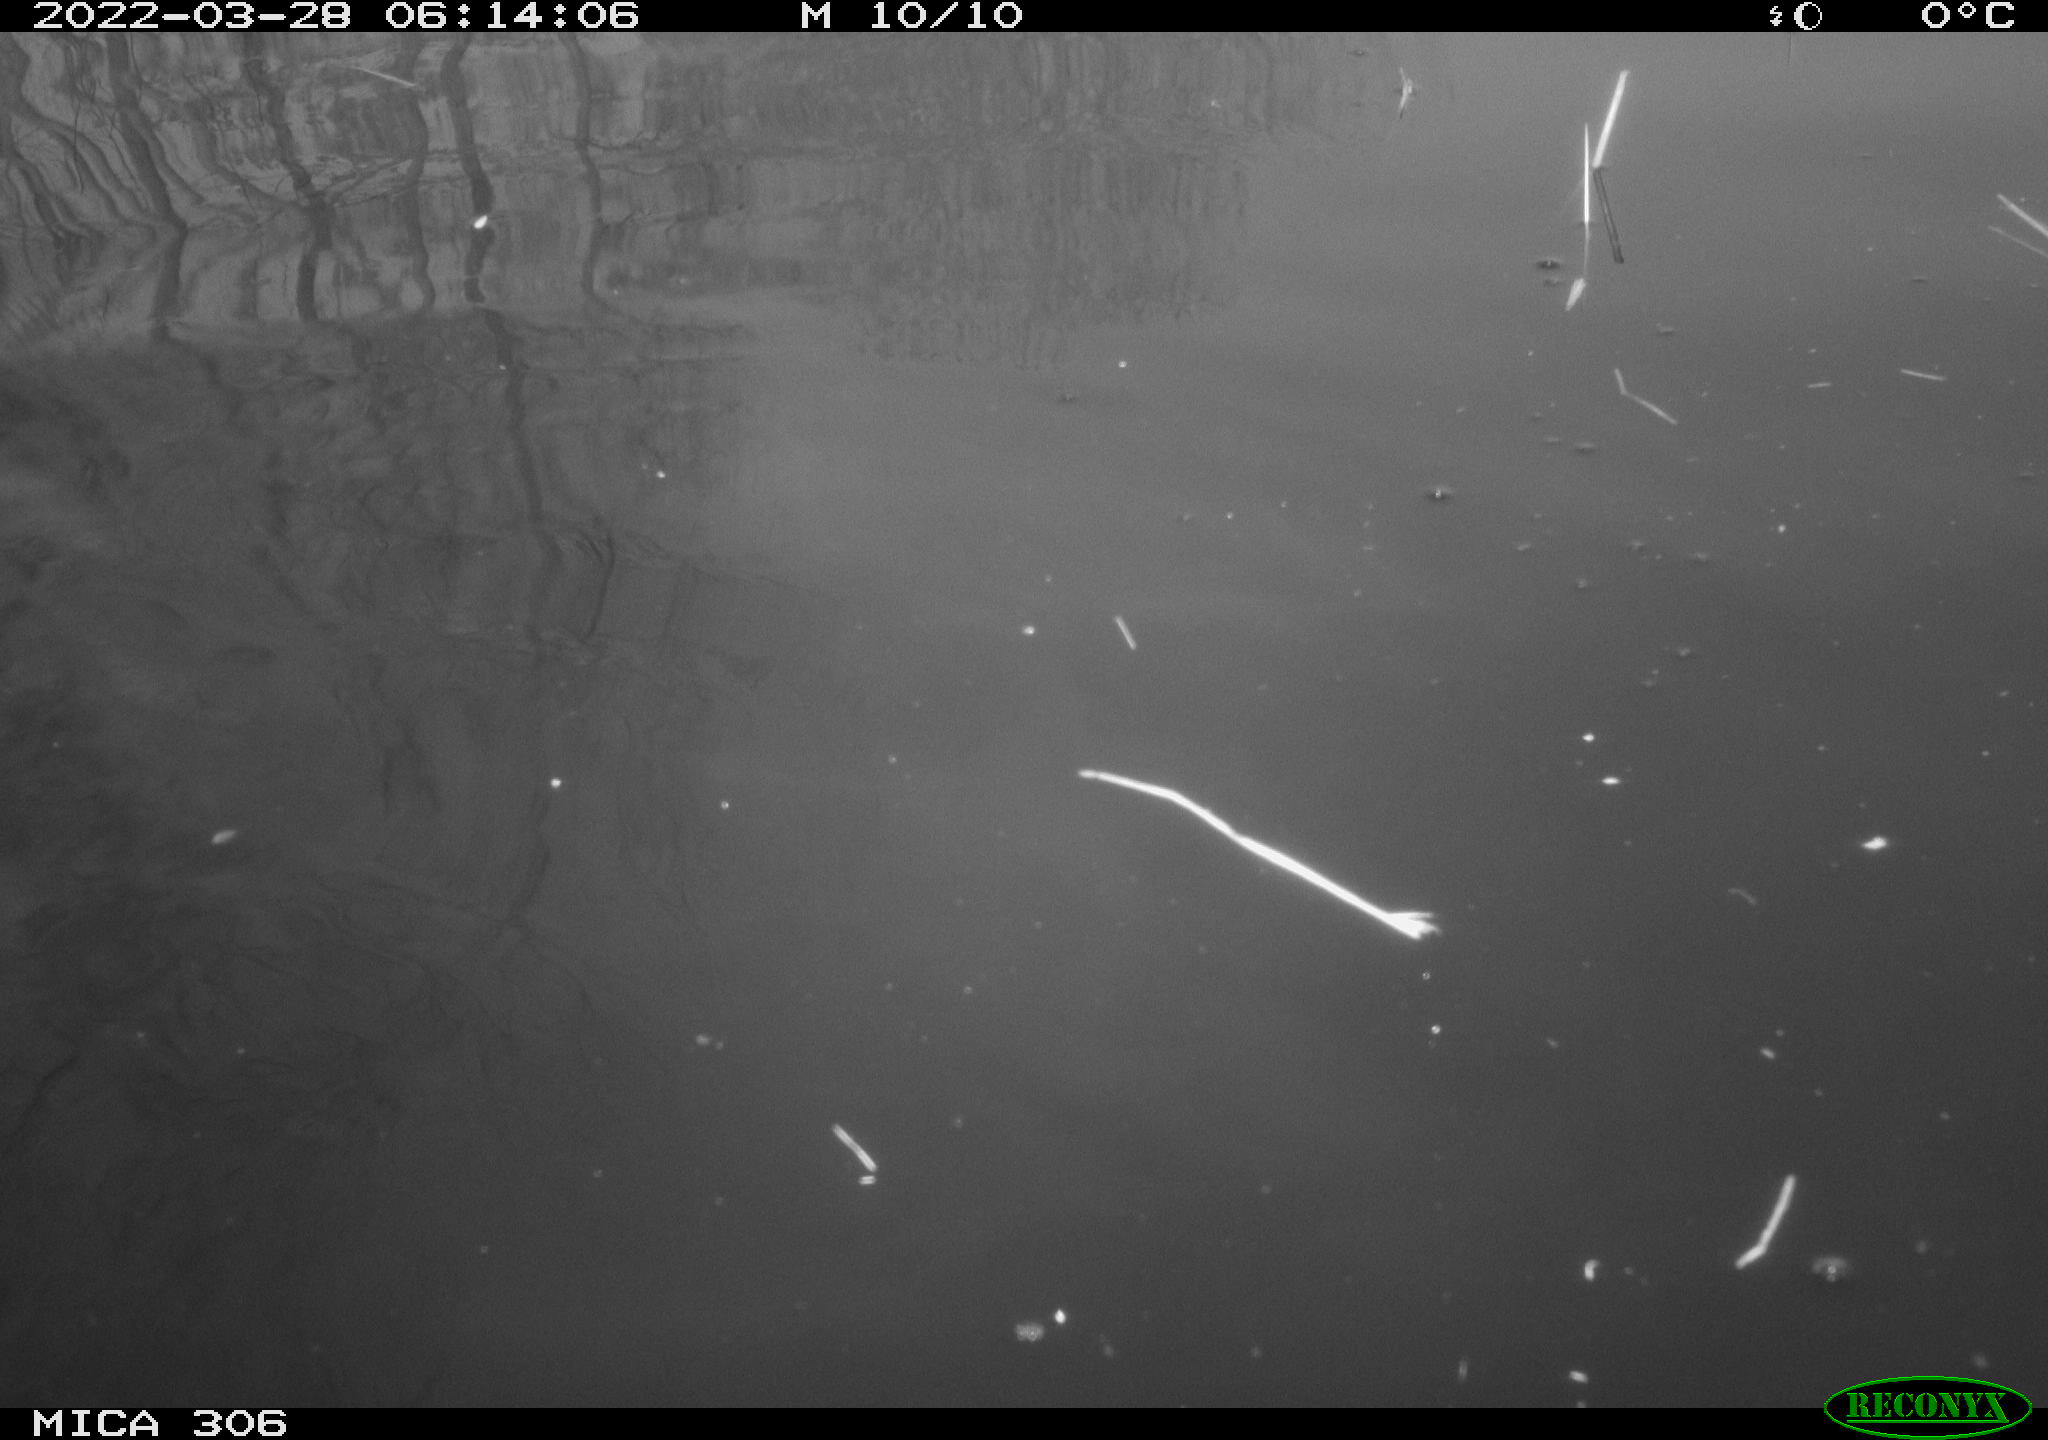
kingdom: Animalia
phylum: Chordata
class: Aves
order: Anseriformes
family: Anatidae
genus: Anas
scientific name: Anas platyrhynchos
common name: Mallard
